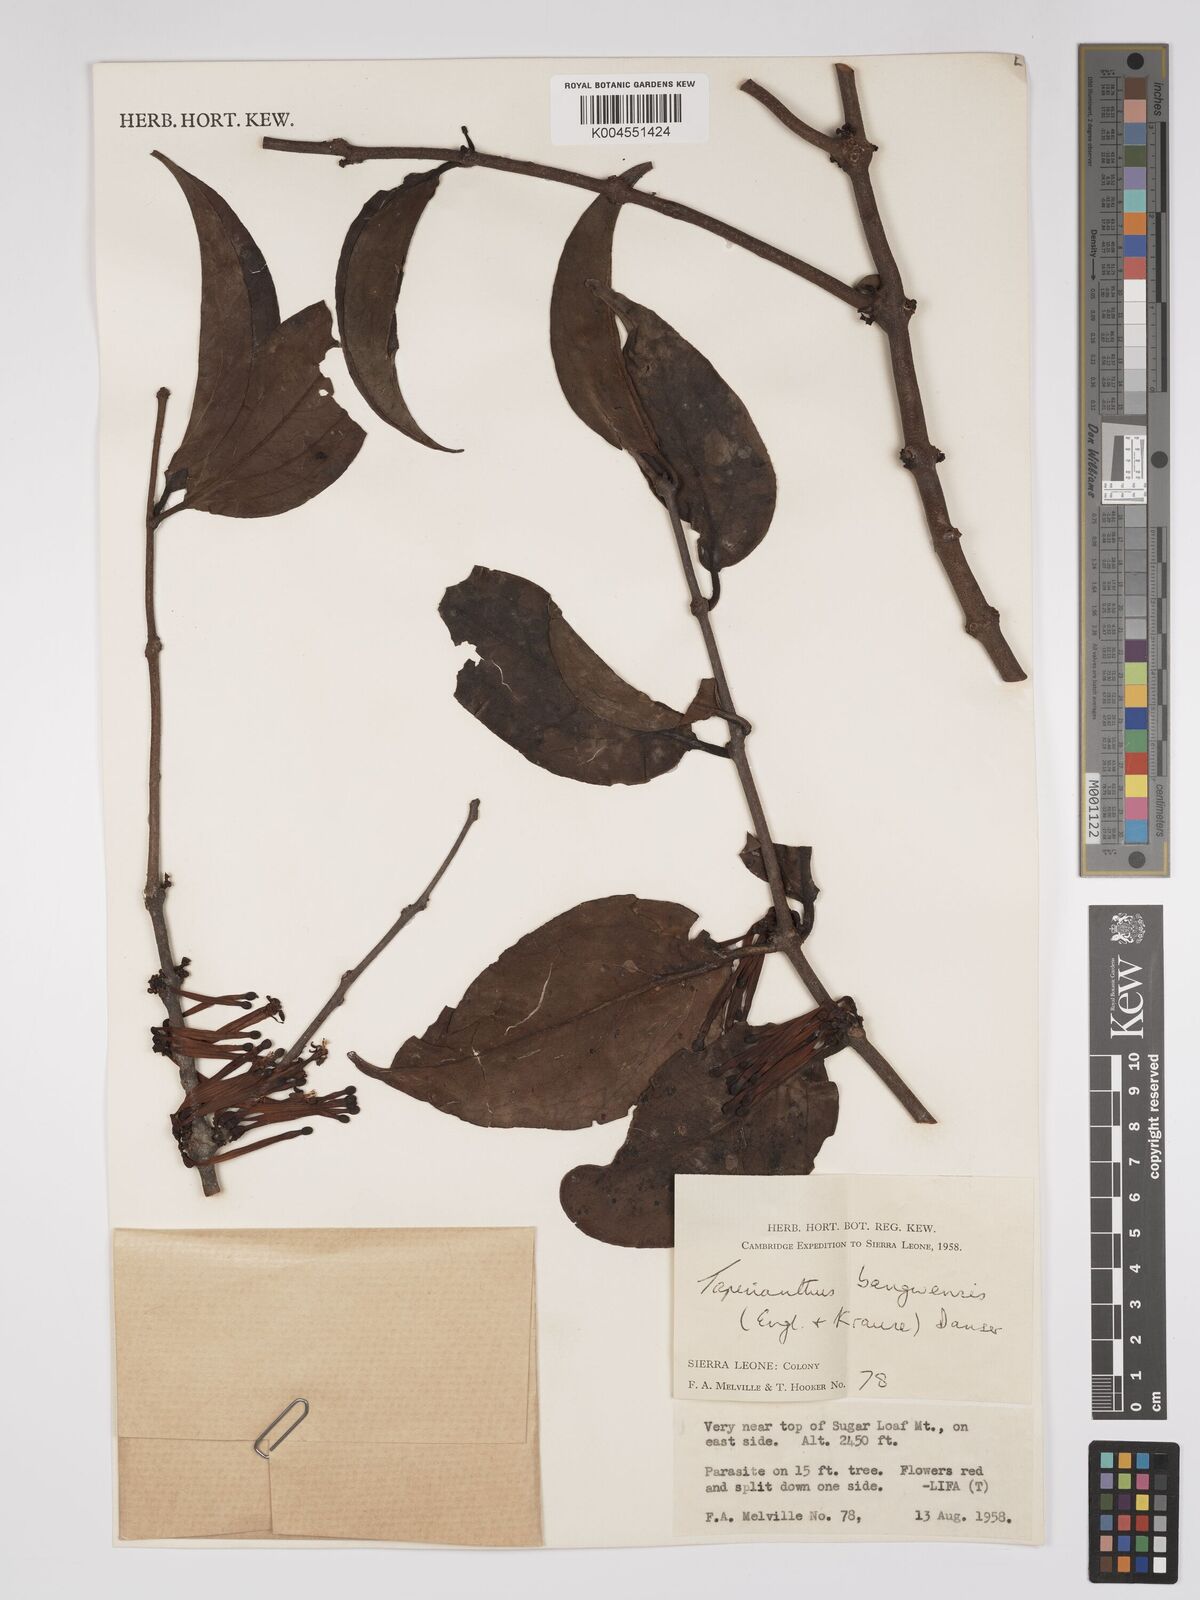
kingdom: Plantae
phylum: Tracheophyta
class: Magnoliopsida
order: Santalales
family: Loranthaceae
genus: Tapinanthus
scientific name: Tapinanthus bangwensis
